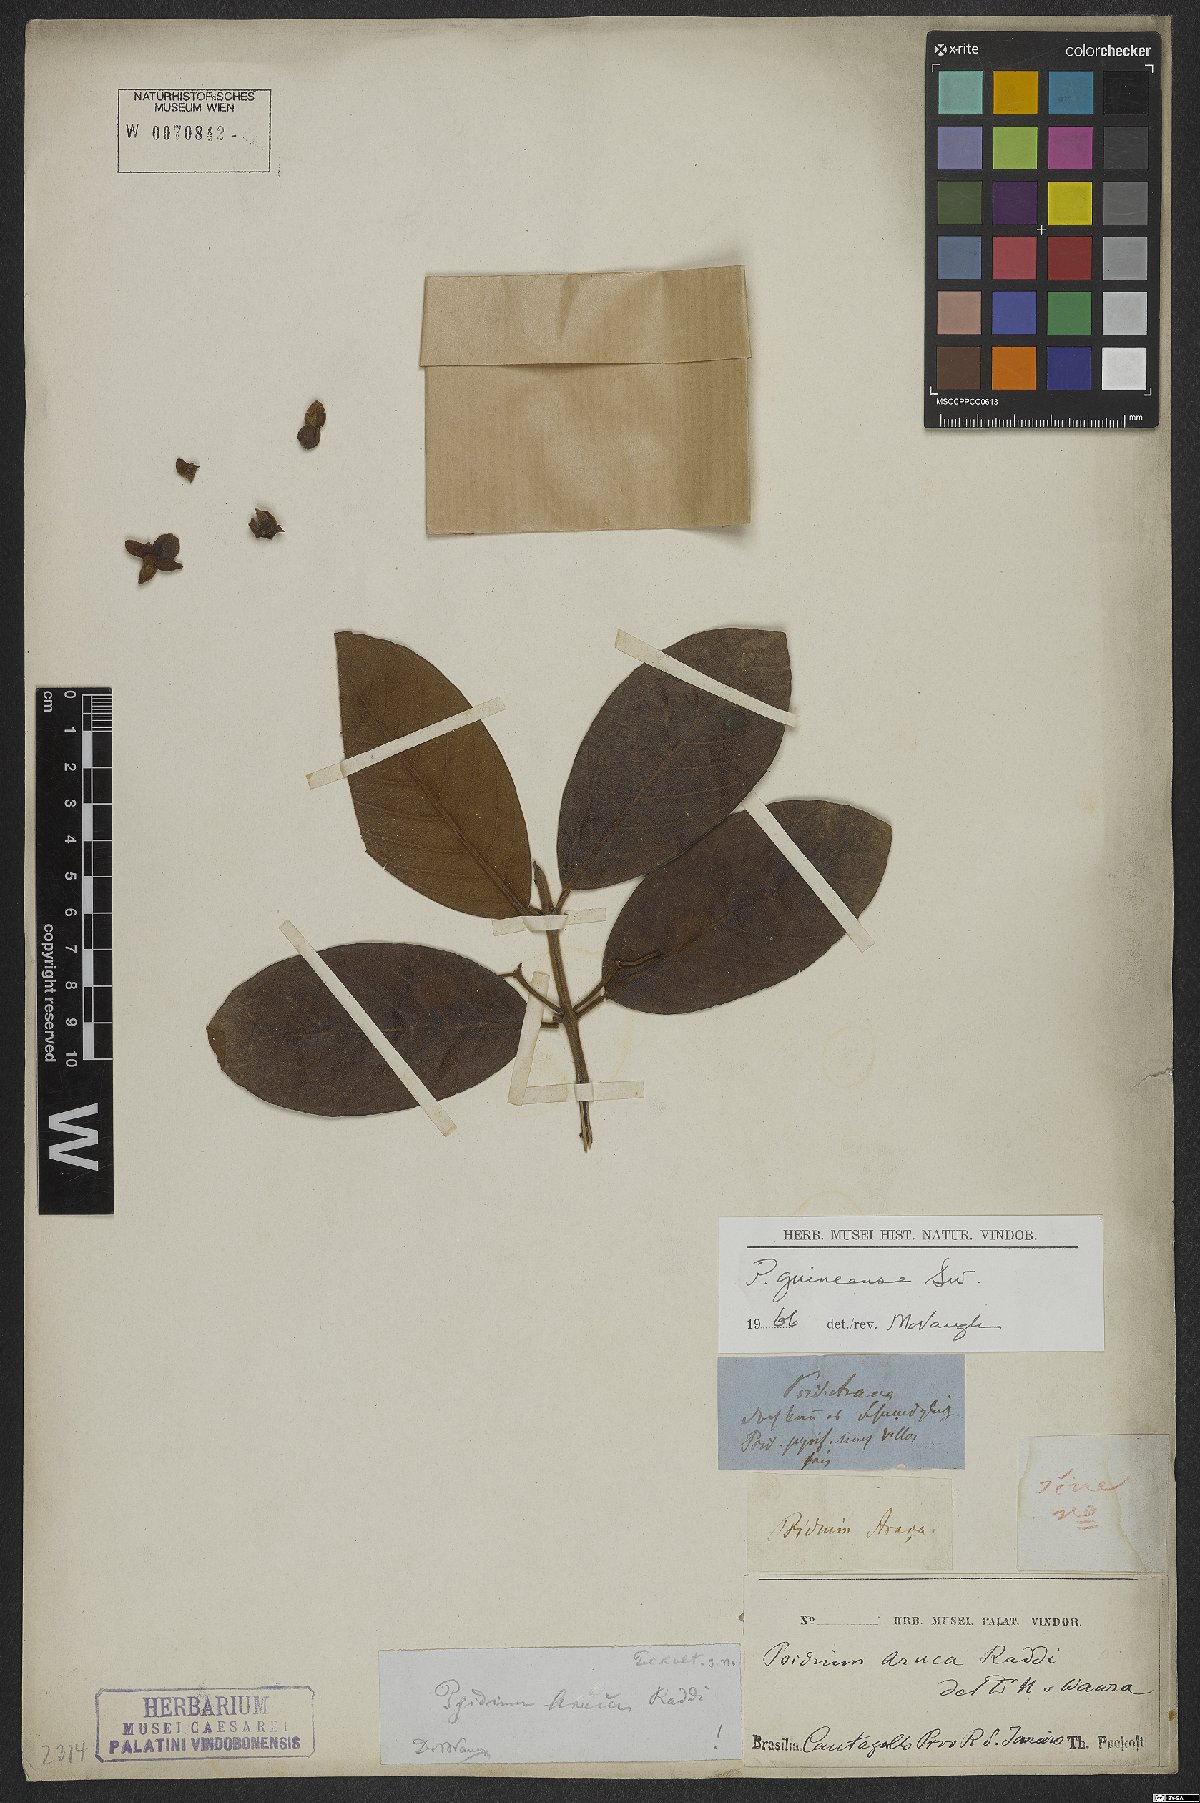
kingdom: Plantae
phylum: Tracheophyta
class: Magnoliopsida
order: Myrtales
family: Myrtaceae
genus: Psidium
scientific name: Psidium guineense
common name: Brazilian guava
